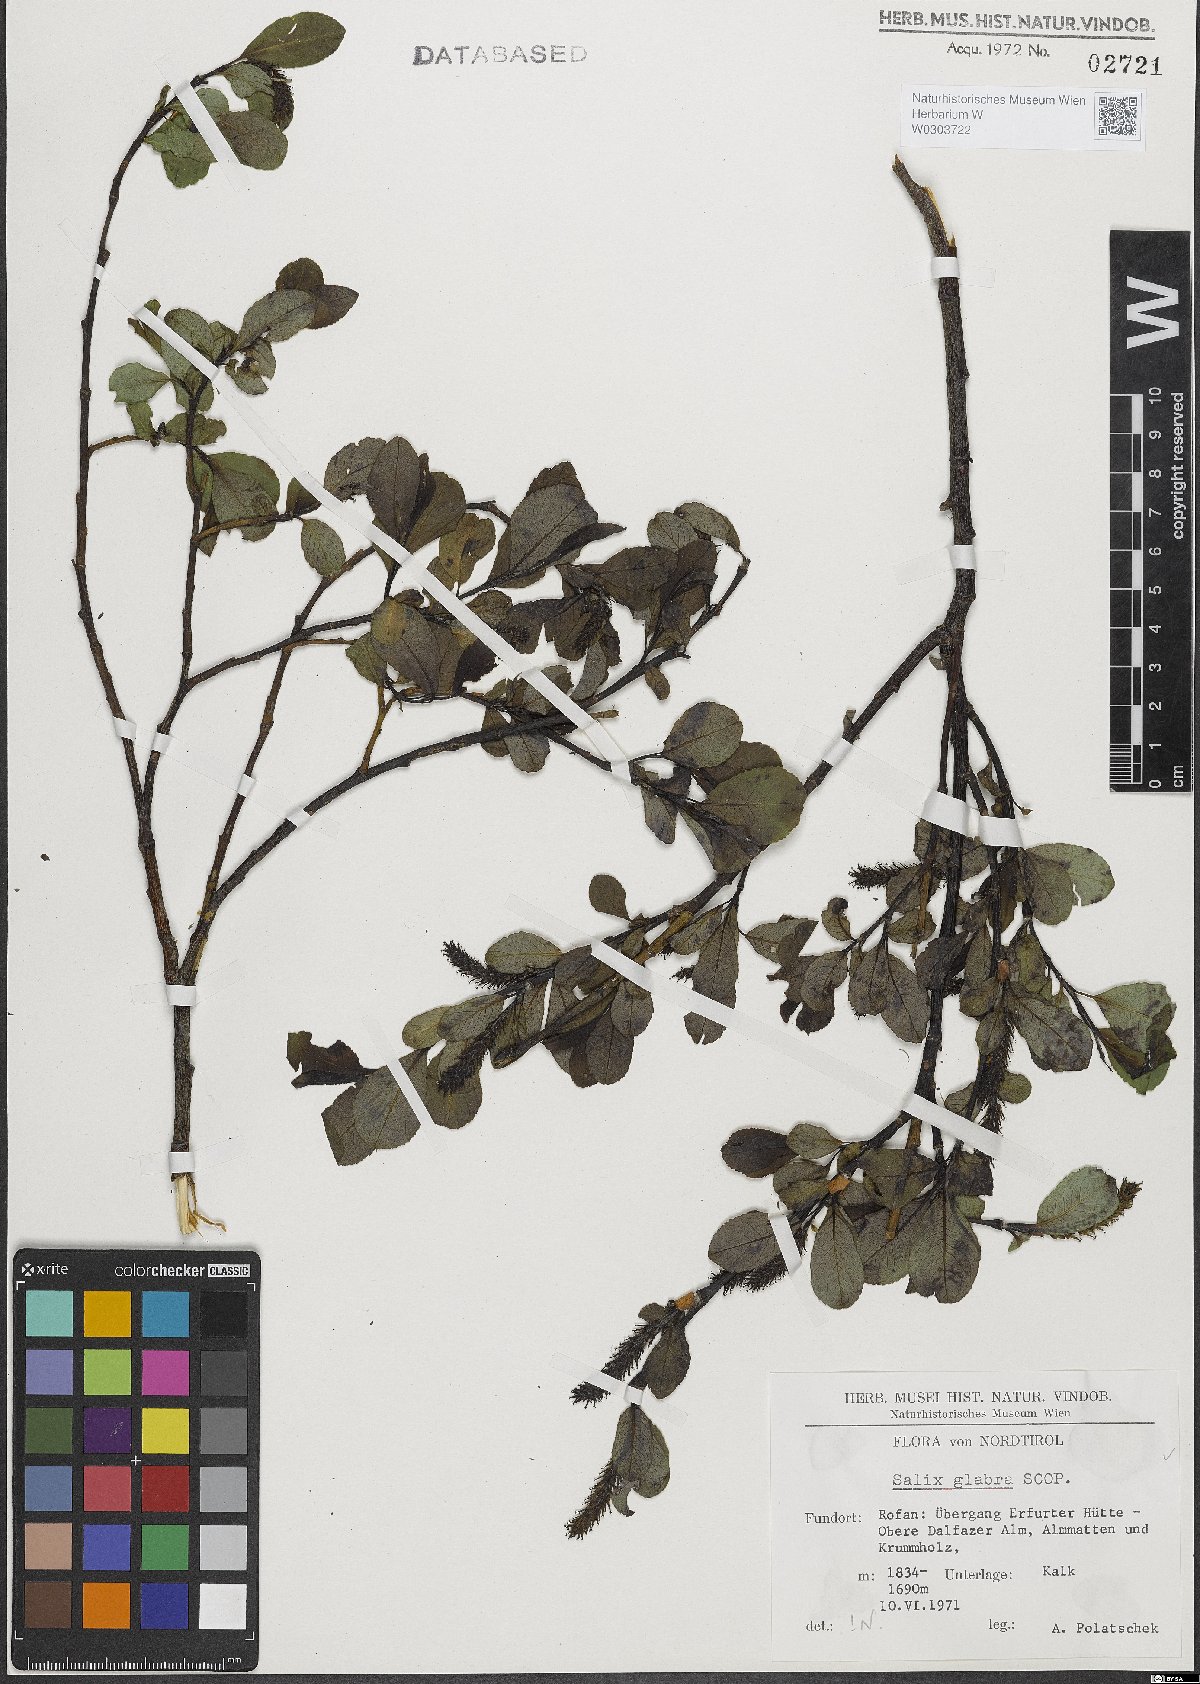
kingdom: Plantae
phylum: Tracheophyta
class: Magnoliopsida
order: Malpighiales
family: Salicaceae
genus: Salix
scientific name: Salix glabra
